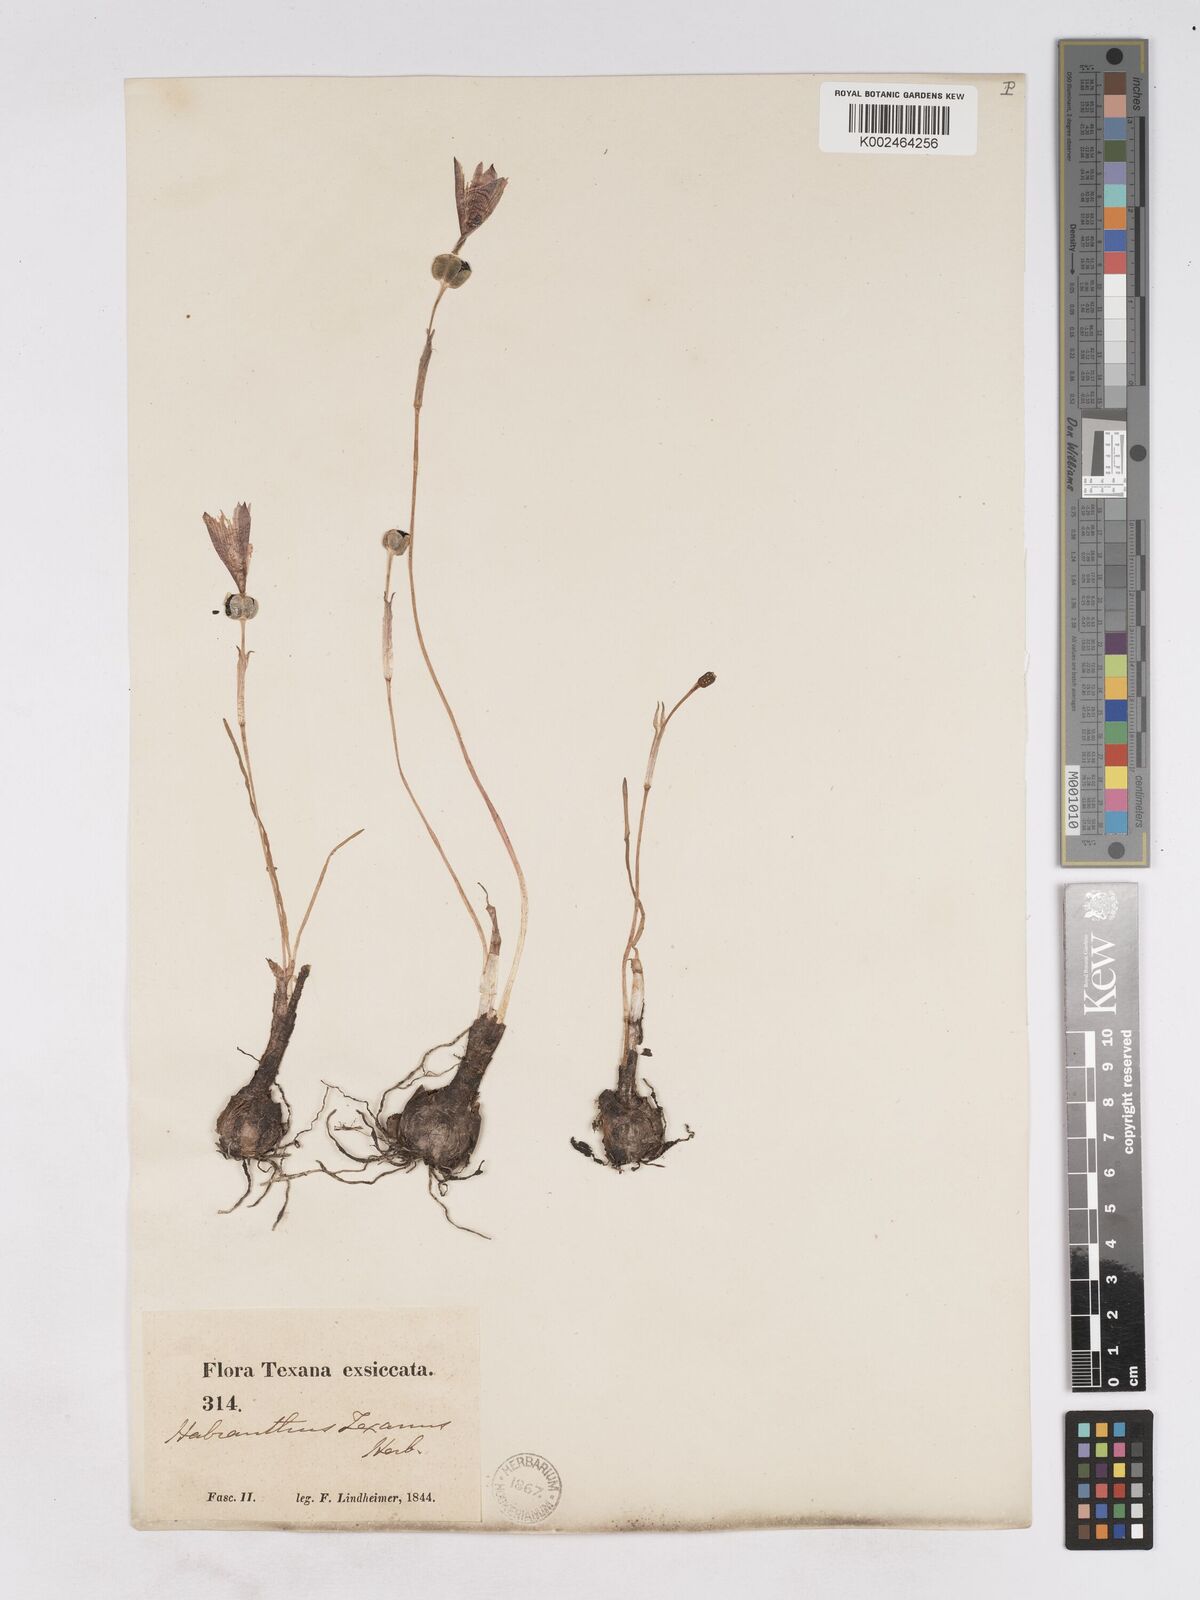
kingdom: Plantae
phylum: Tracheophyta
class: Liliopsida
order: Asparagales
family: Amaryllidaceae
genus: Zephyranthes
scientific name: Zephyranthes tubispatha
